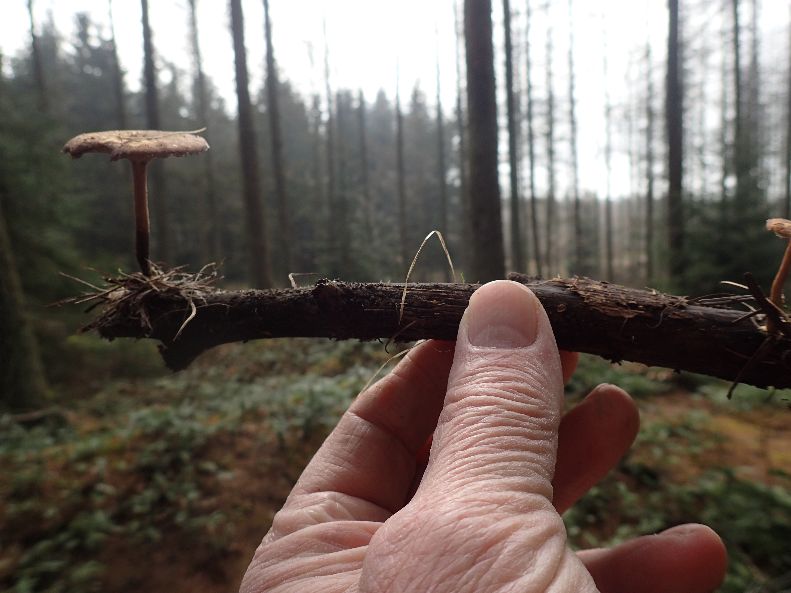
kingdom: Fungi
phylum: Basidiomycota
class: Agaricomycetes
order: Polyporales
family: Polyporaceae
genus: Lentinus
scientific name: Lentinus brumalis
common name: vinter-stilkporesvamp
